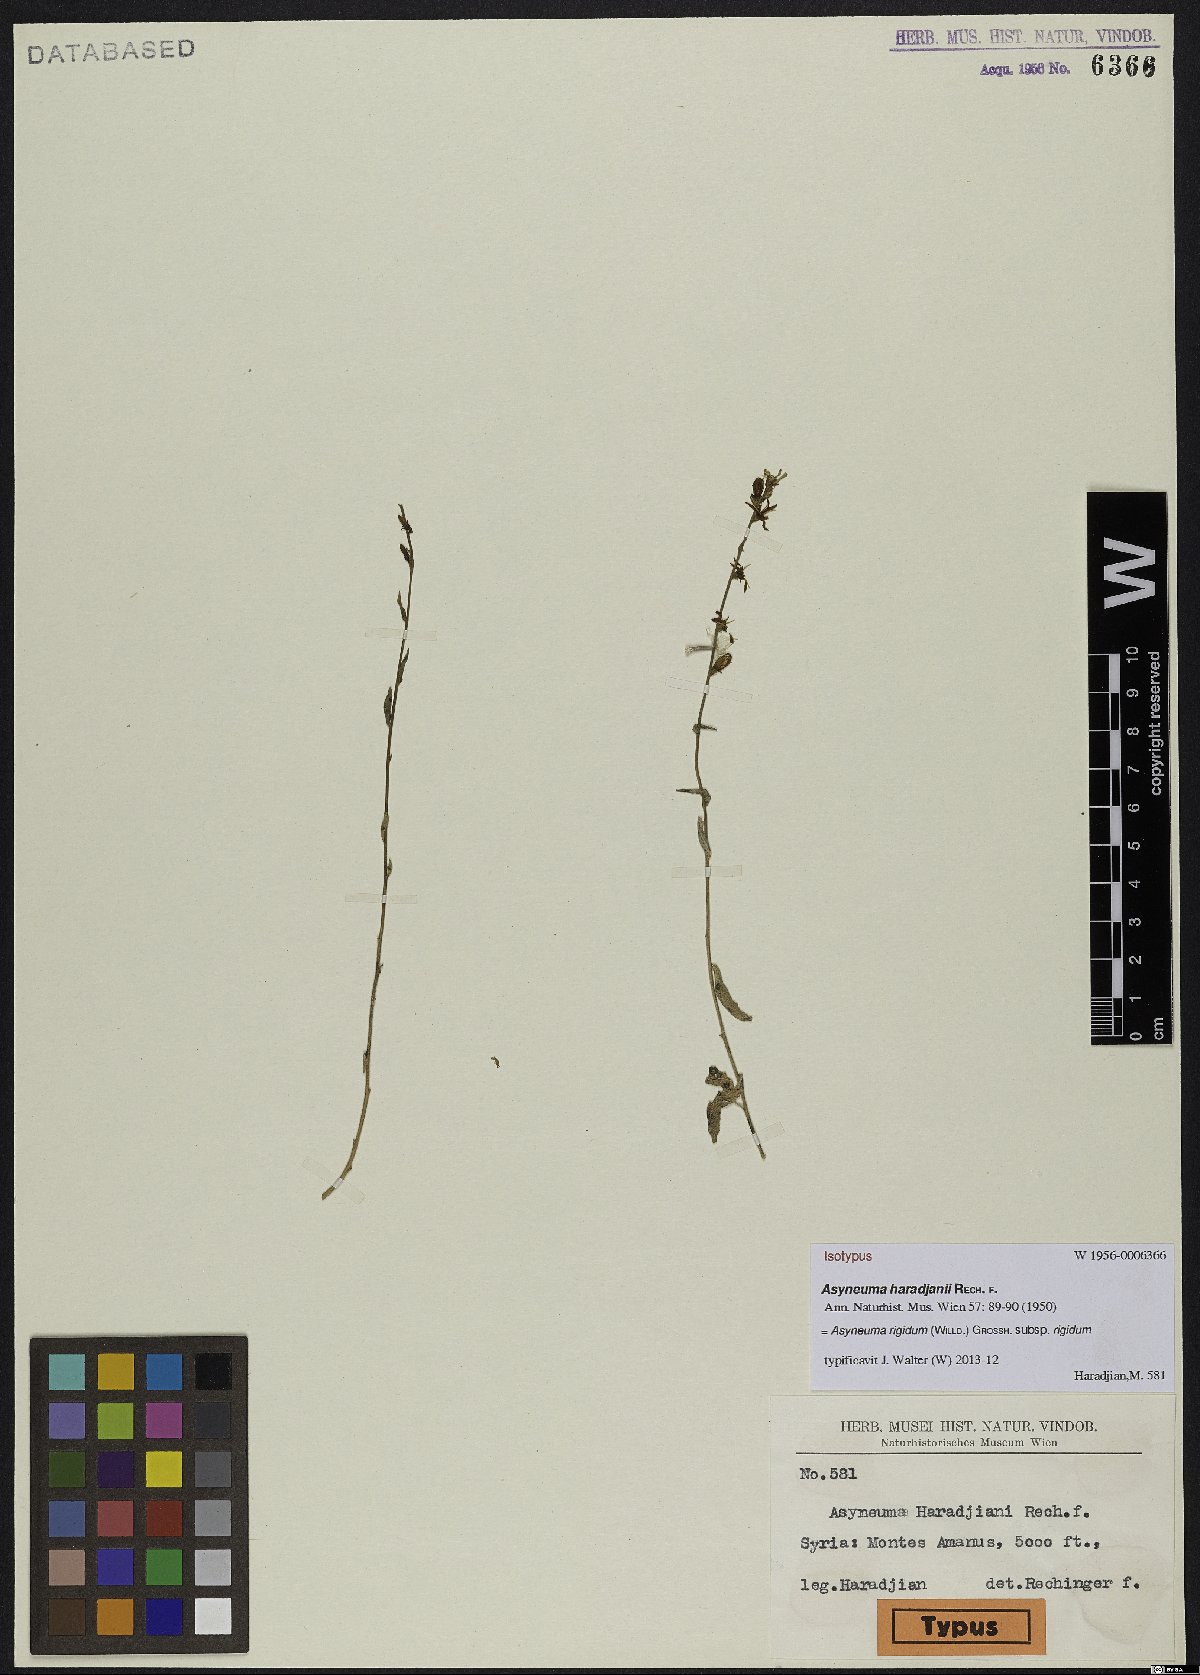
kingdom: Plantae
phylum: Tracheophyta
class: Magnoliopsida
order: Asterales
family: Campanulaceae
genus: Asyneuma
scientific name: Asyneuma rigidum
